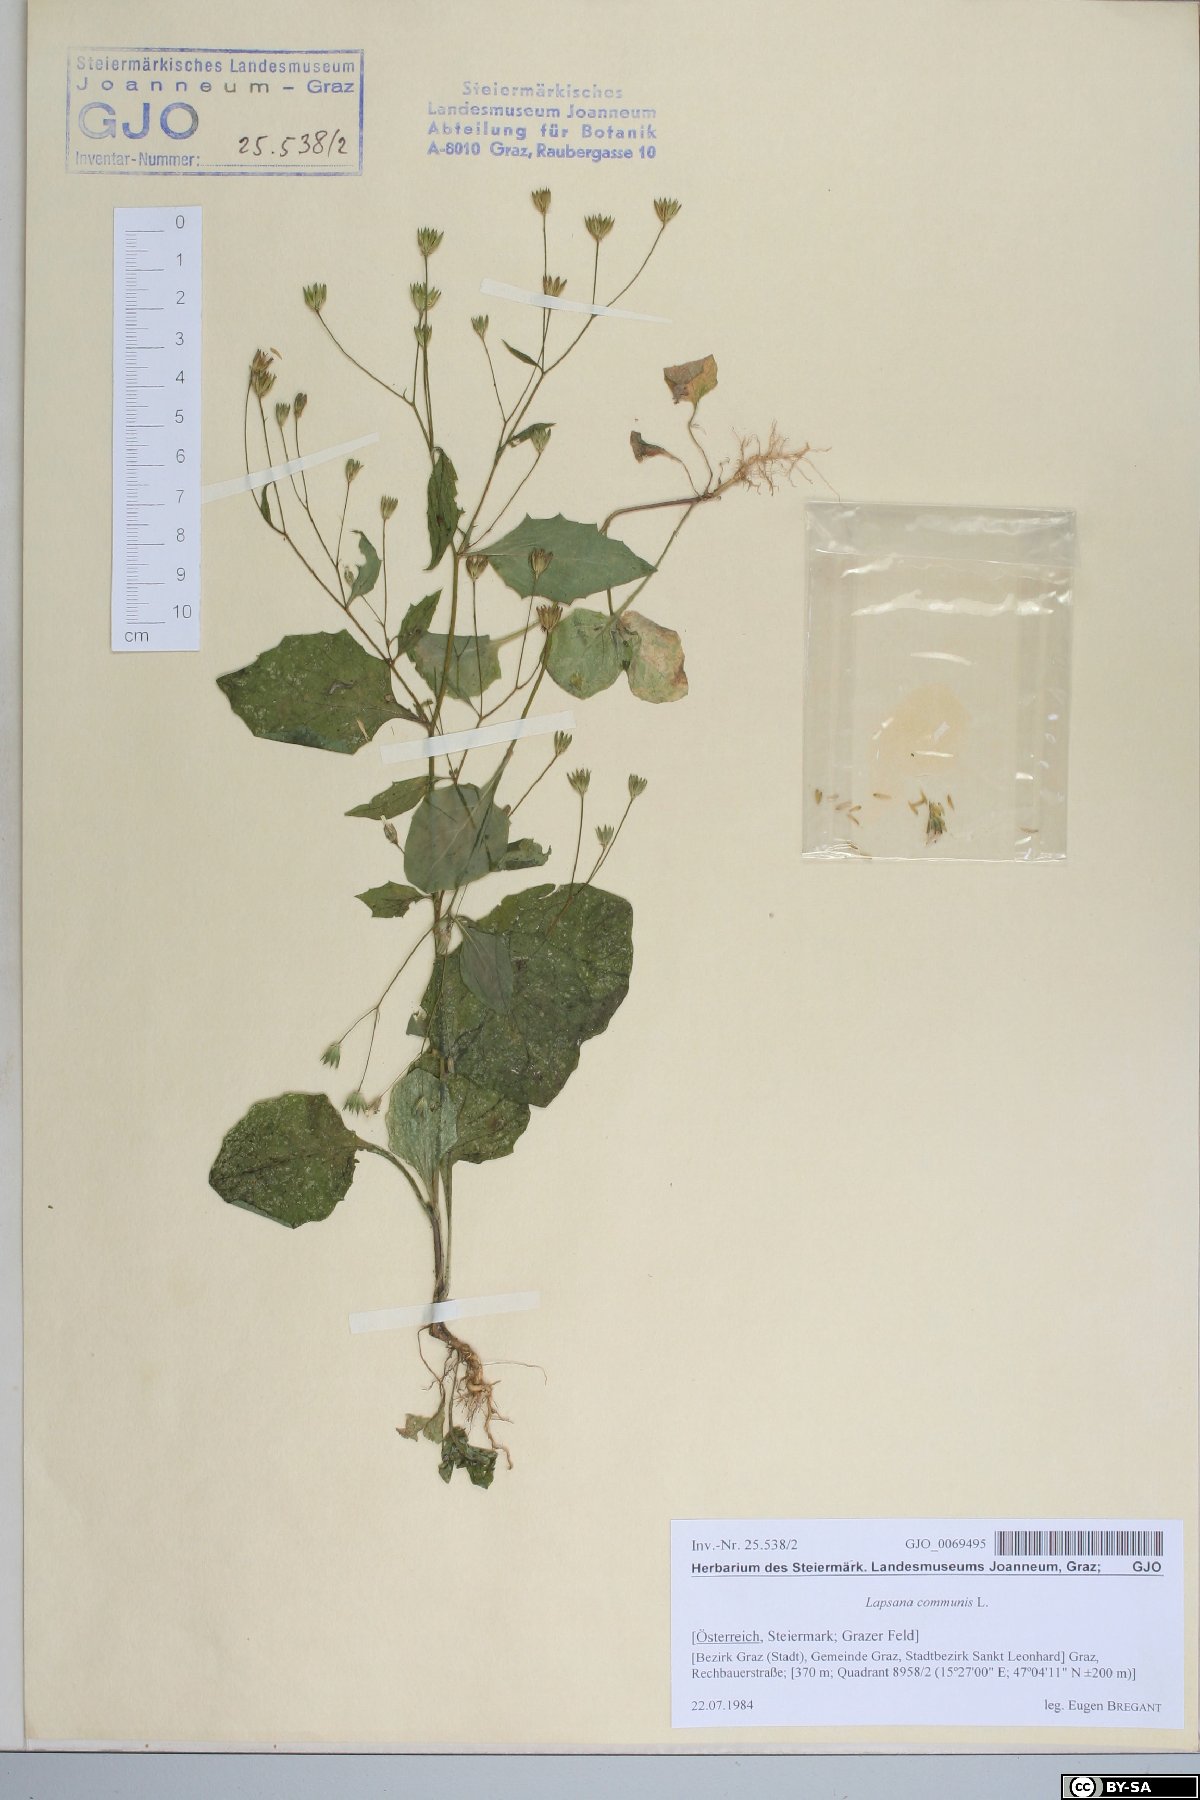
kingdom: Plantae
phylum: Tracheophyta
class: Magnoliopsida
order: Asterales
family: Asteraceae
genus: Lapsana
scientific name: Lapsana communis
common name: Nipplewort
